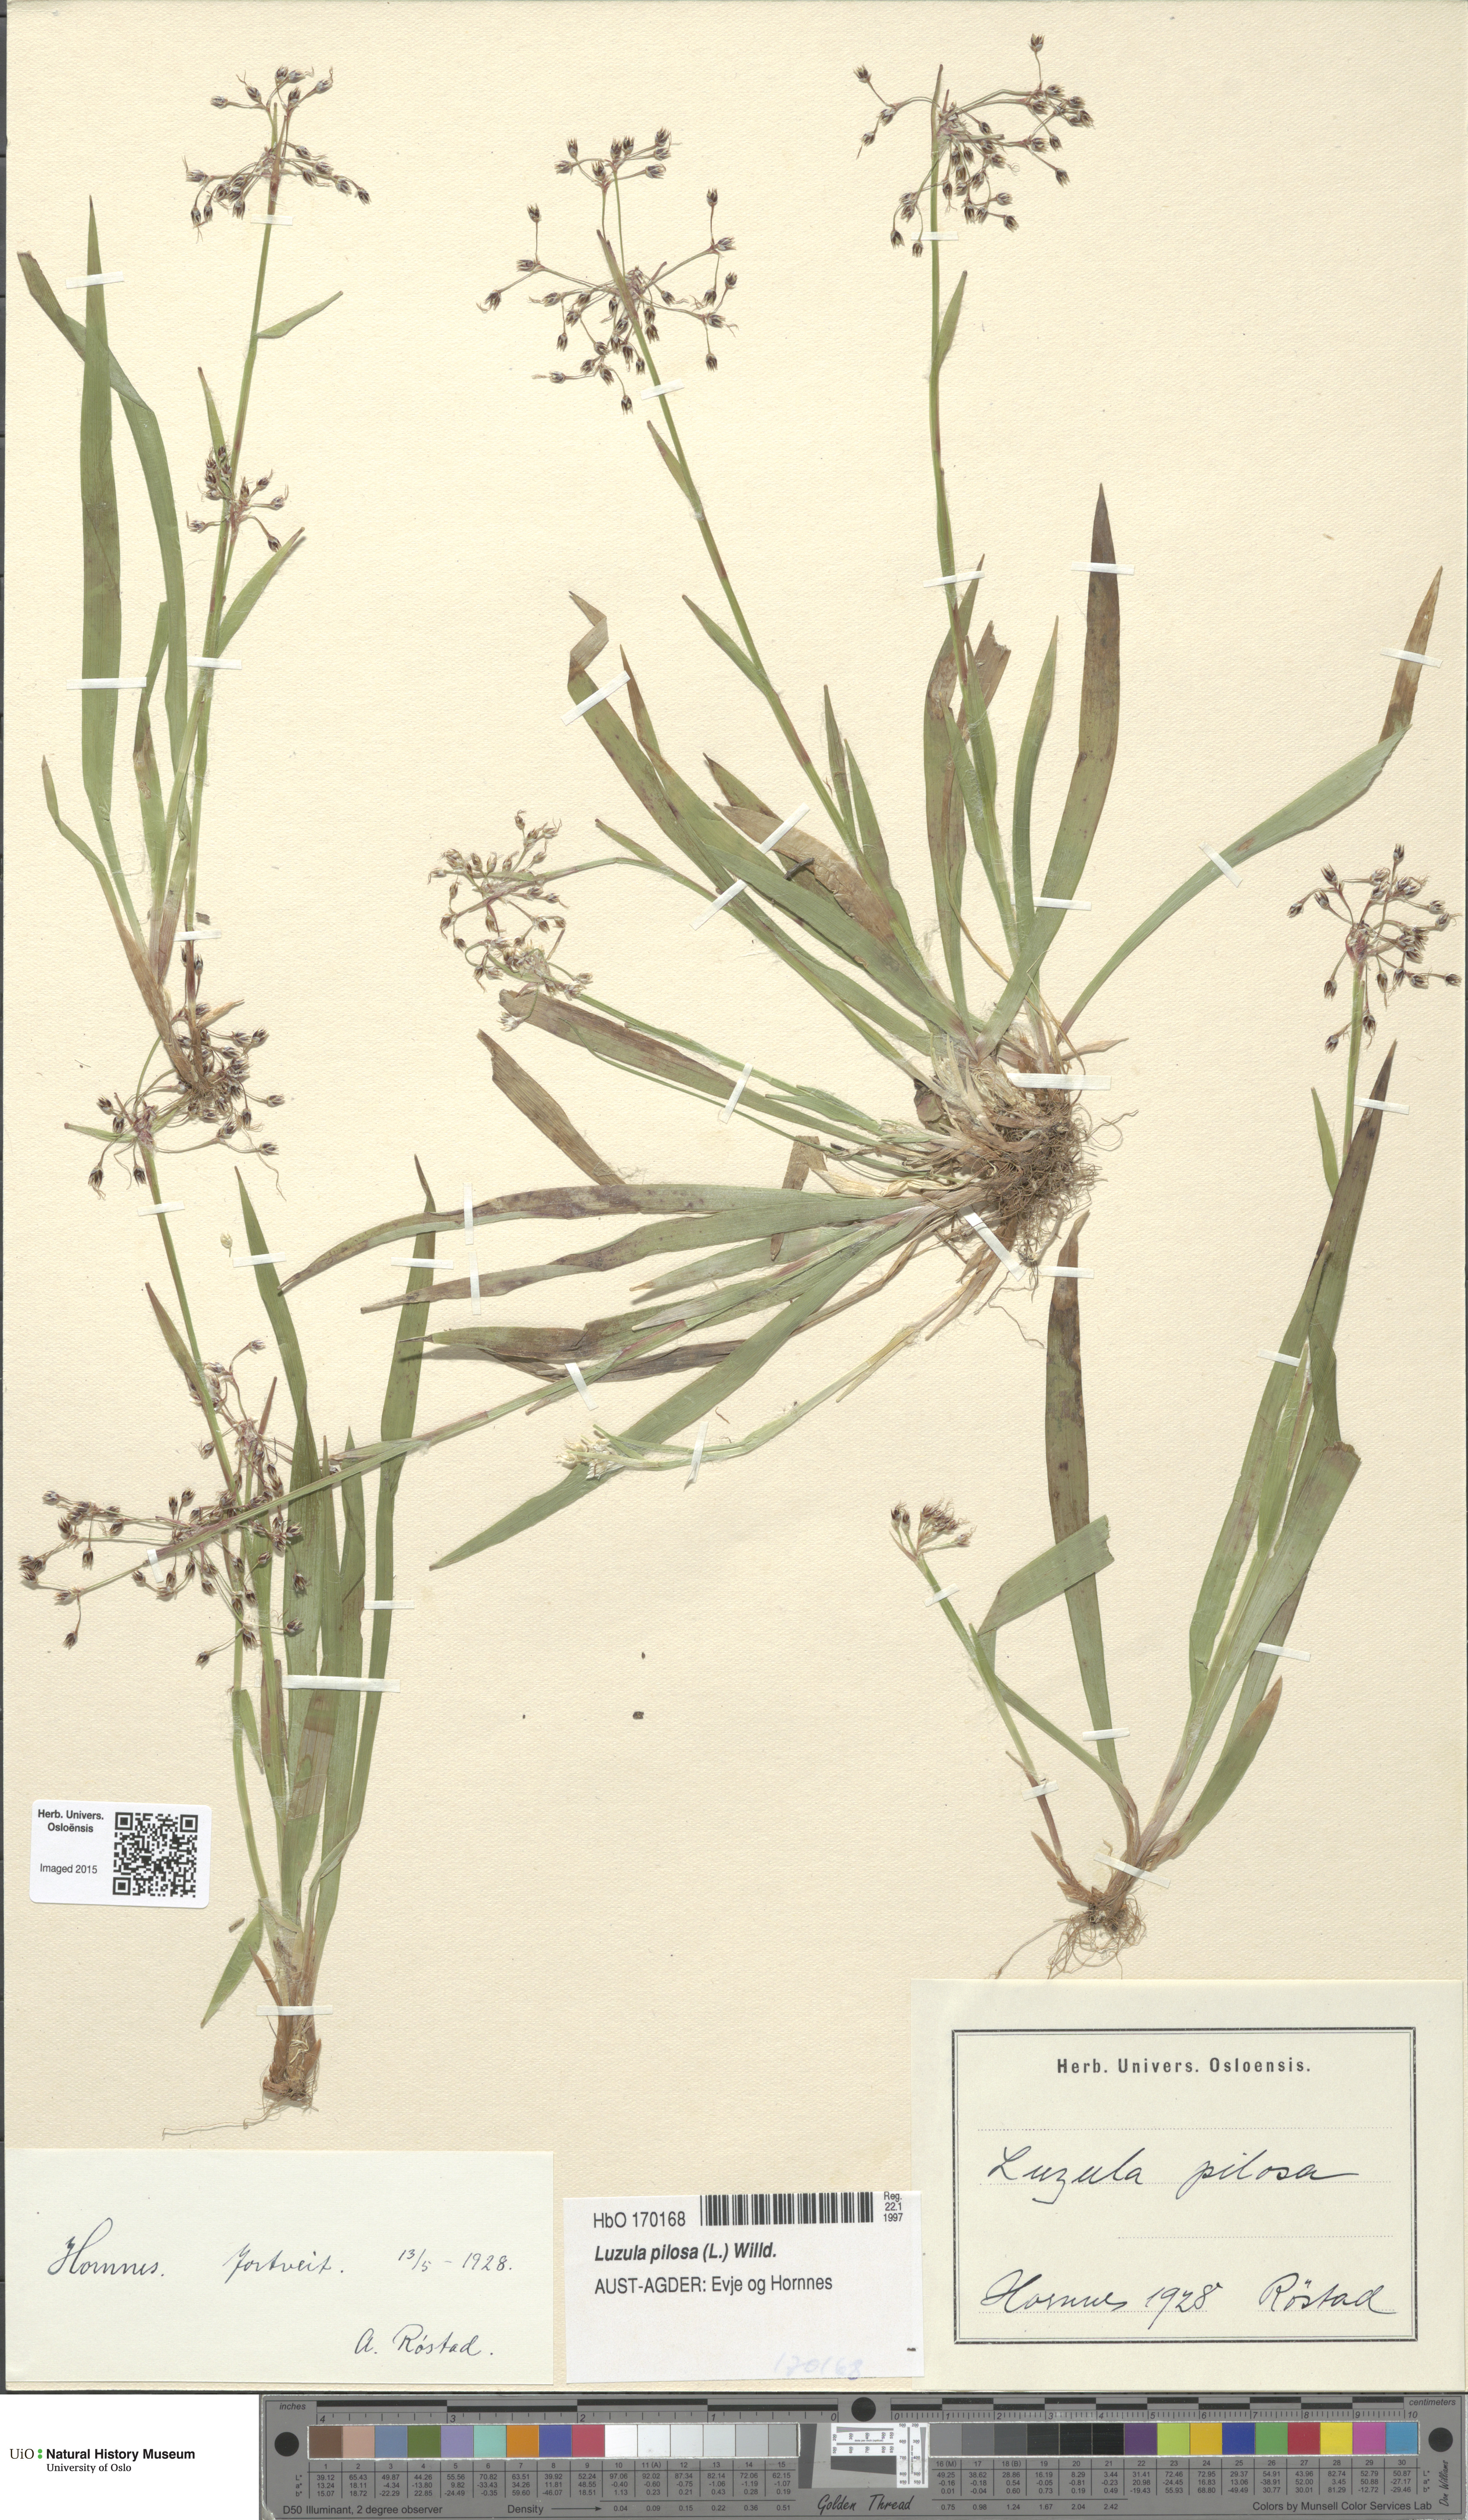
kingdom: Plantae
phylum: Tracheophyta
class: Liliopsida
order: Poales
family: Juncaceae
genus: Luzula
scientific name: Luzula pilosa
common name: Hairy wood-rush
